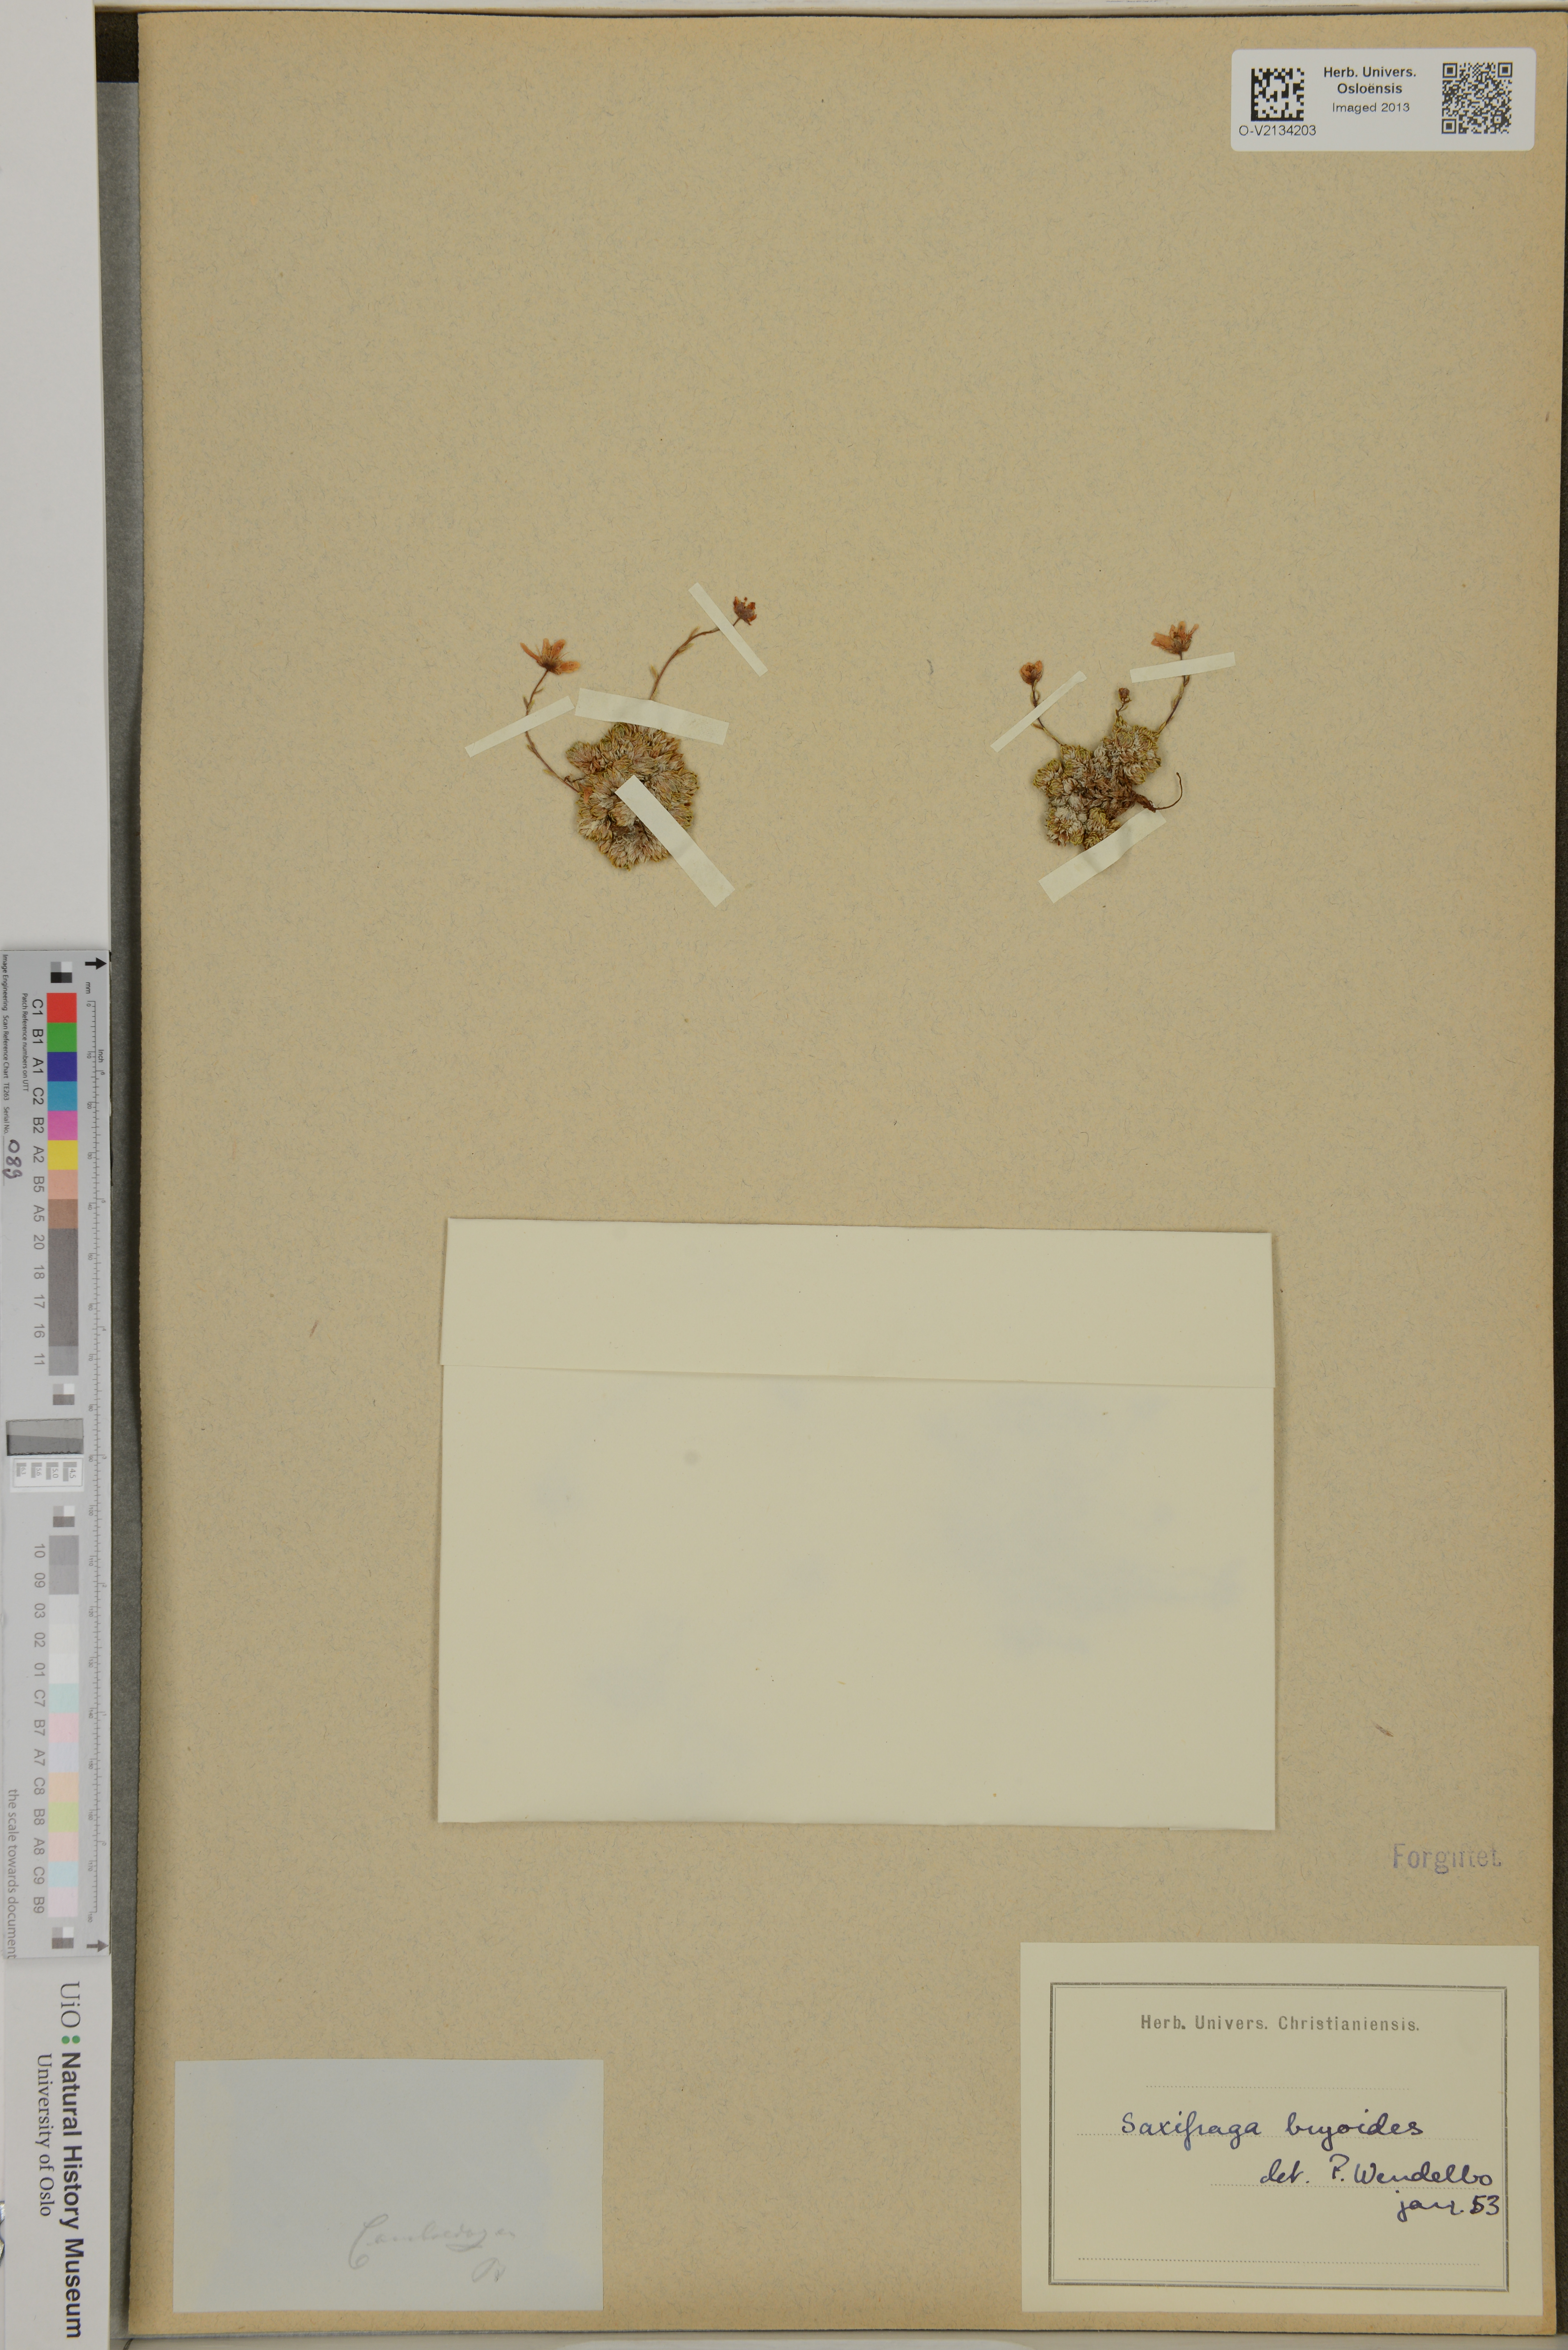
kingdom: Plantae
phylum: Tracheophyta
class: Magnoliopsida
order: Saxifragales
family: Saxifragaceae
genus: Saxifraga
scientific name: Saxifraga bryoides
